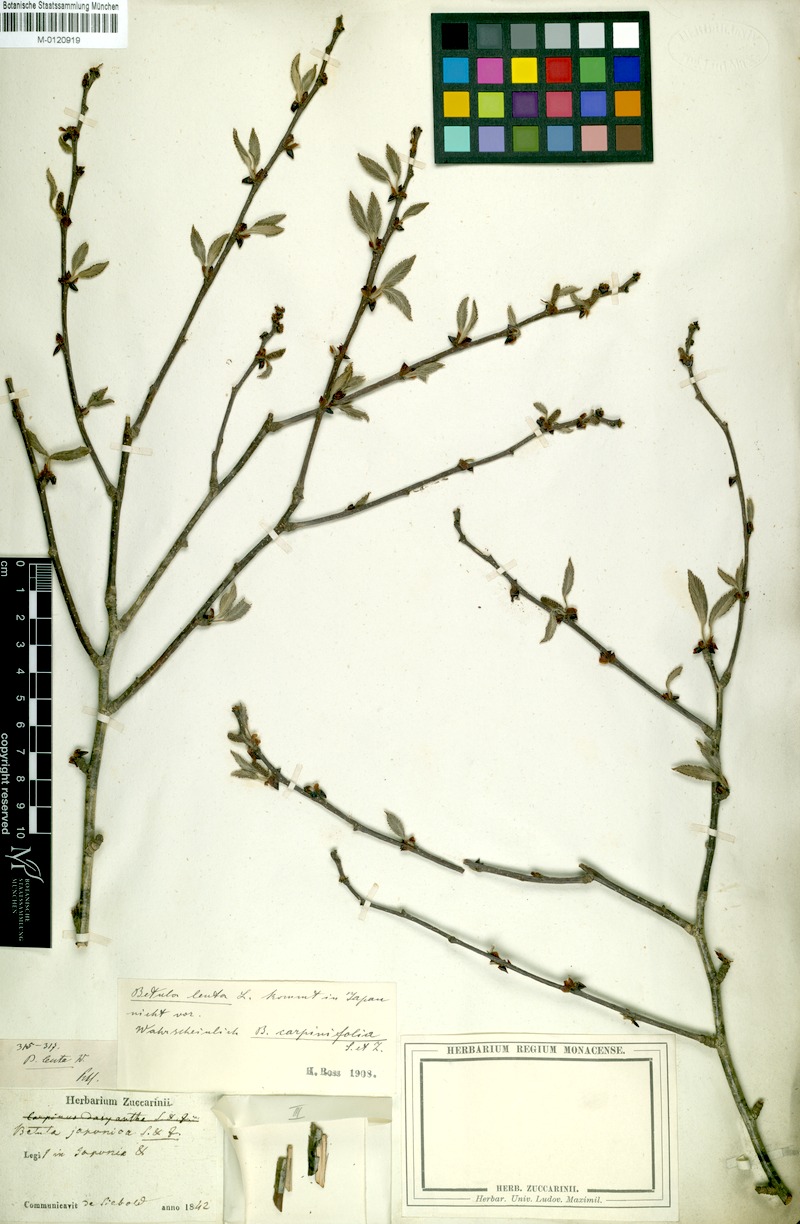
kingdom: Plantae
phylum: Tracheophyta
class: Magnoliopsida
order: Fagales
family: Betulaceae
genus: Betula
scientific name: Betula grossa
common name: Japanese cherry birch
